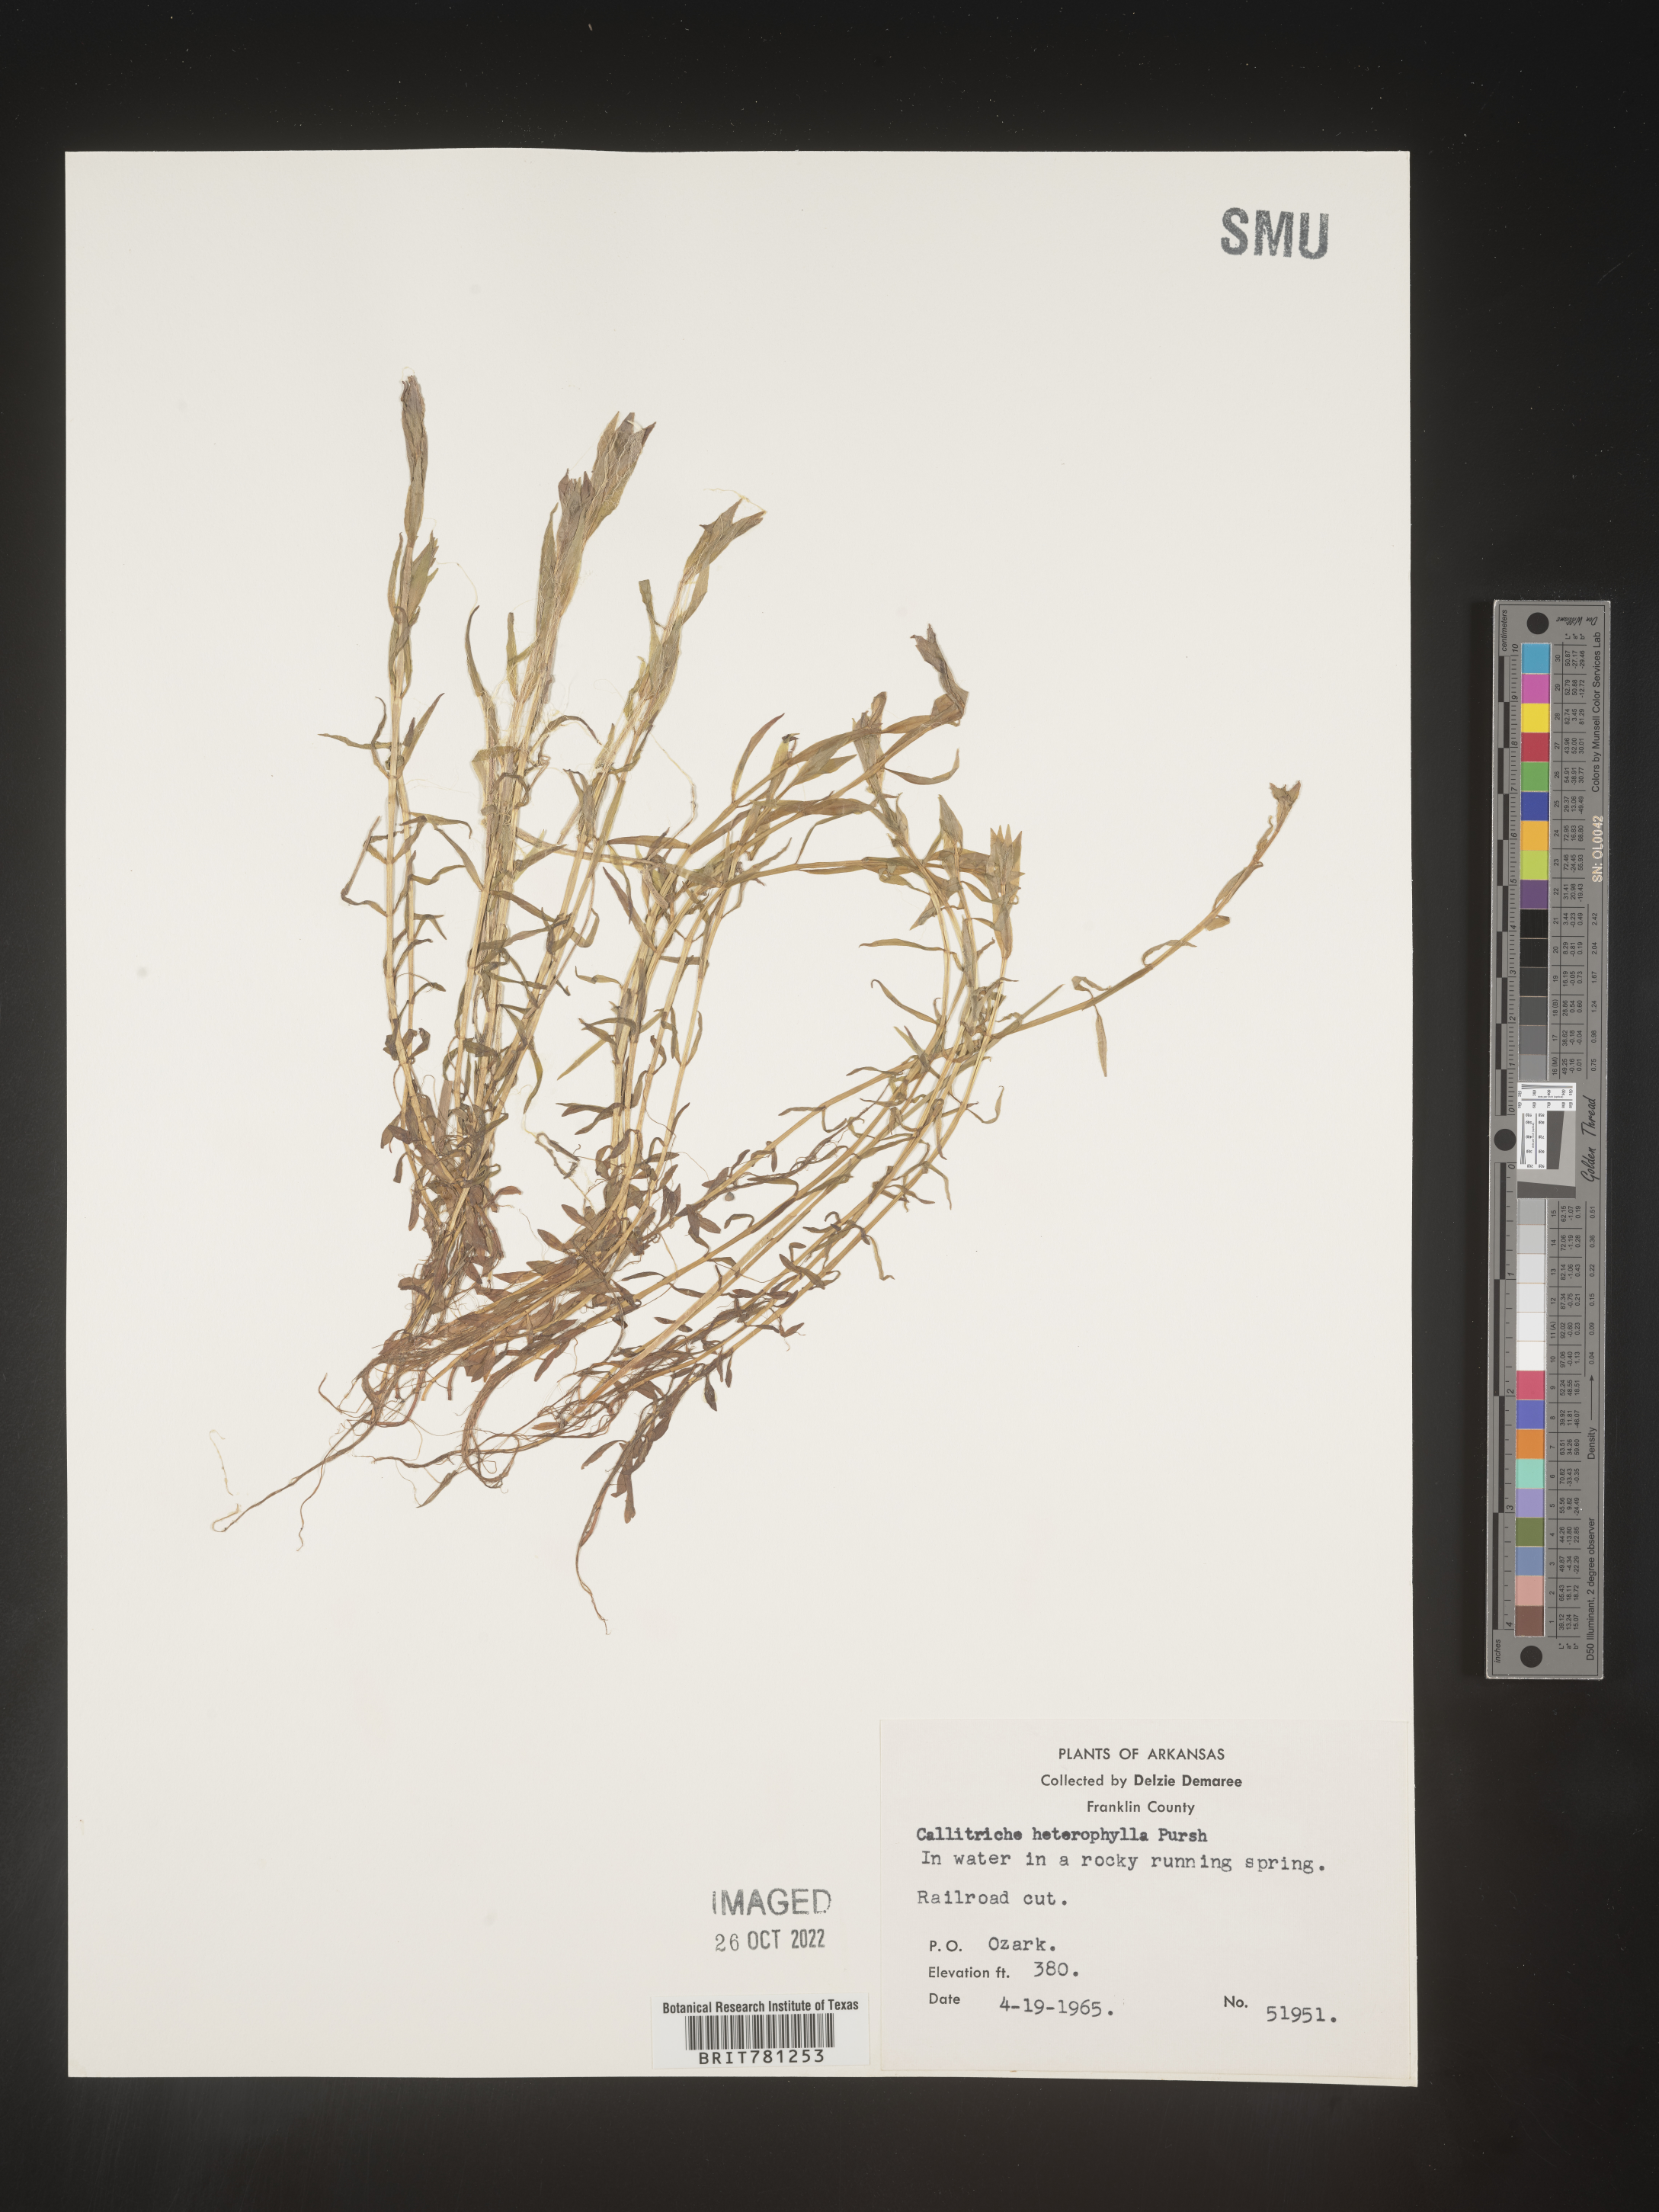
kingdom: Plantae
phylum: Tracheophyta
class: Magnoliopsida
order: Lamiales
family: Plantaginaceae
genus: Callitriche
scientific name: Callitriche heterophylla
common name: Two-headed water-starwort
